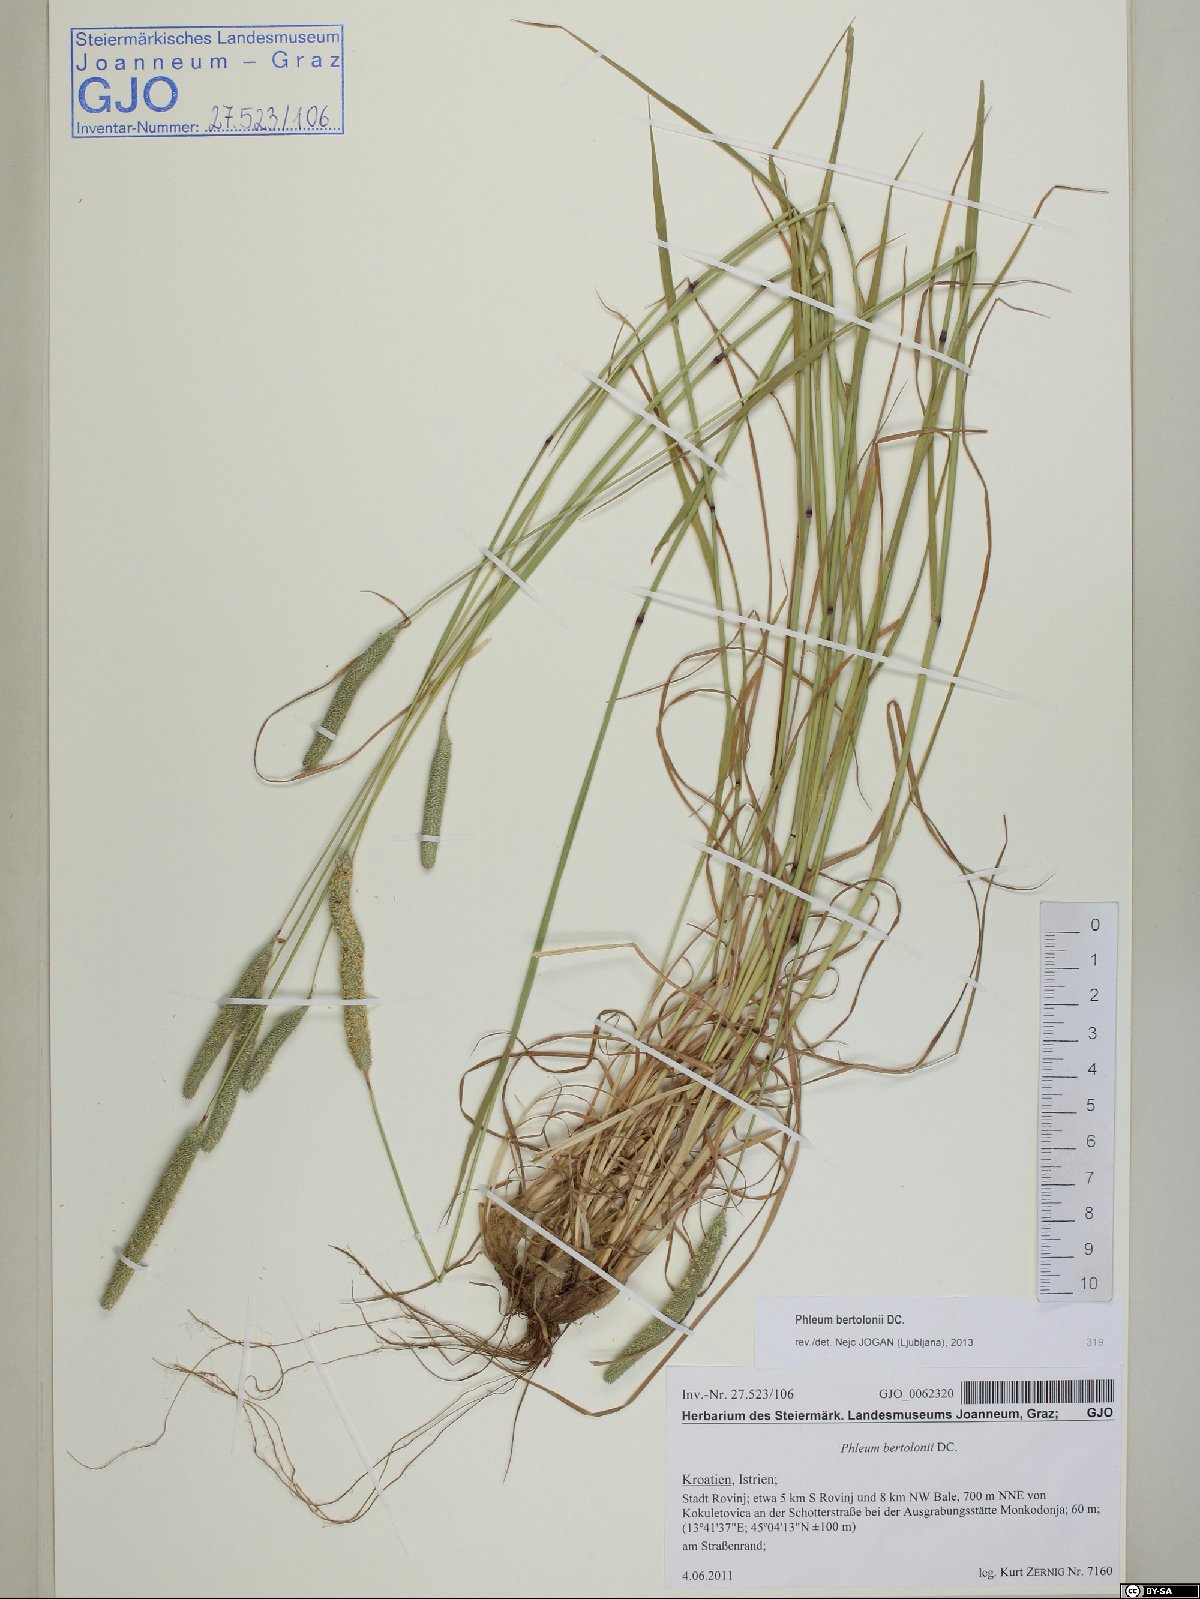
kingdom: Plantae
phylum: Tracheophyta
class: Liliopsida
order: Poales
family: Poaceae
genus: Phleum
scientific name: Phleum bertolonii
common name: Smaller cat's-tail
